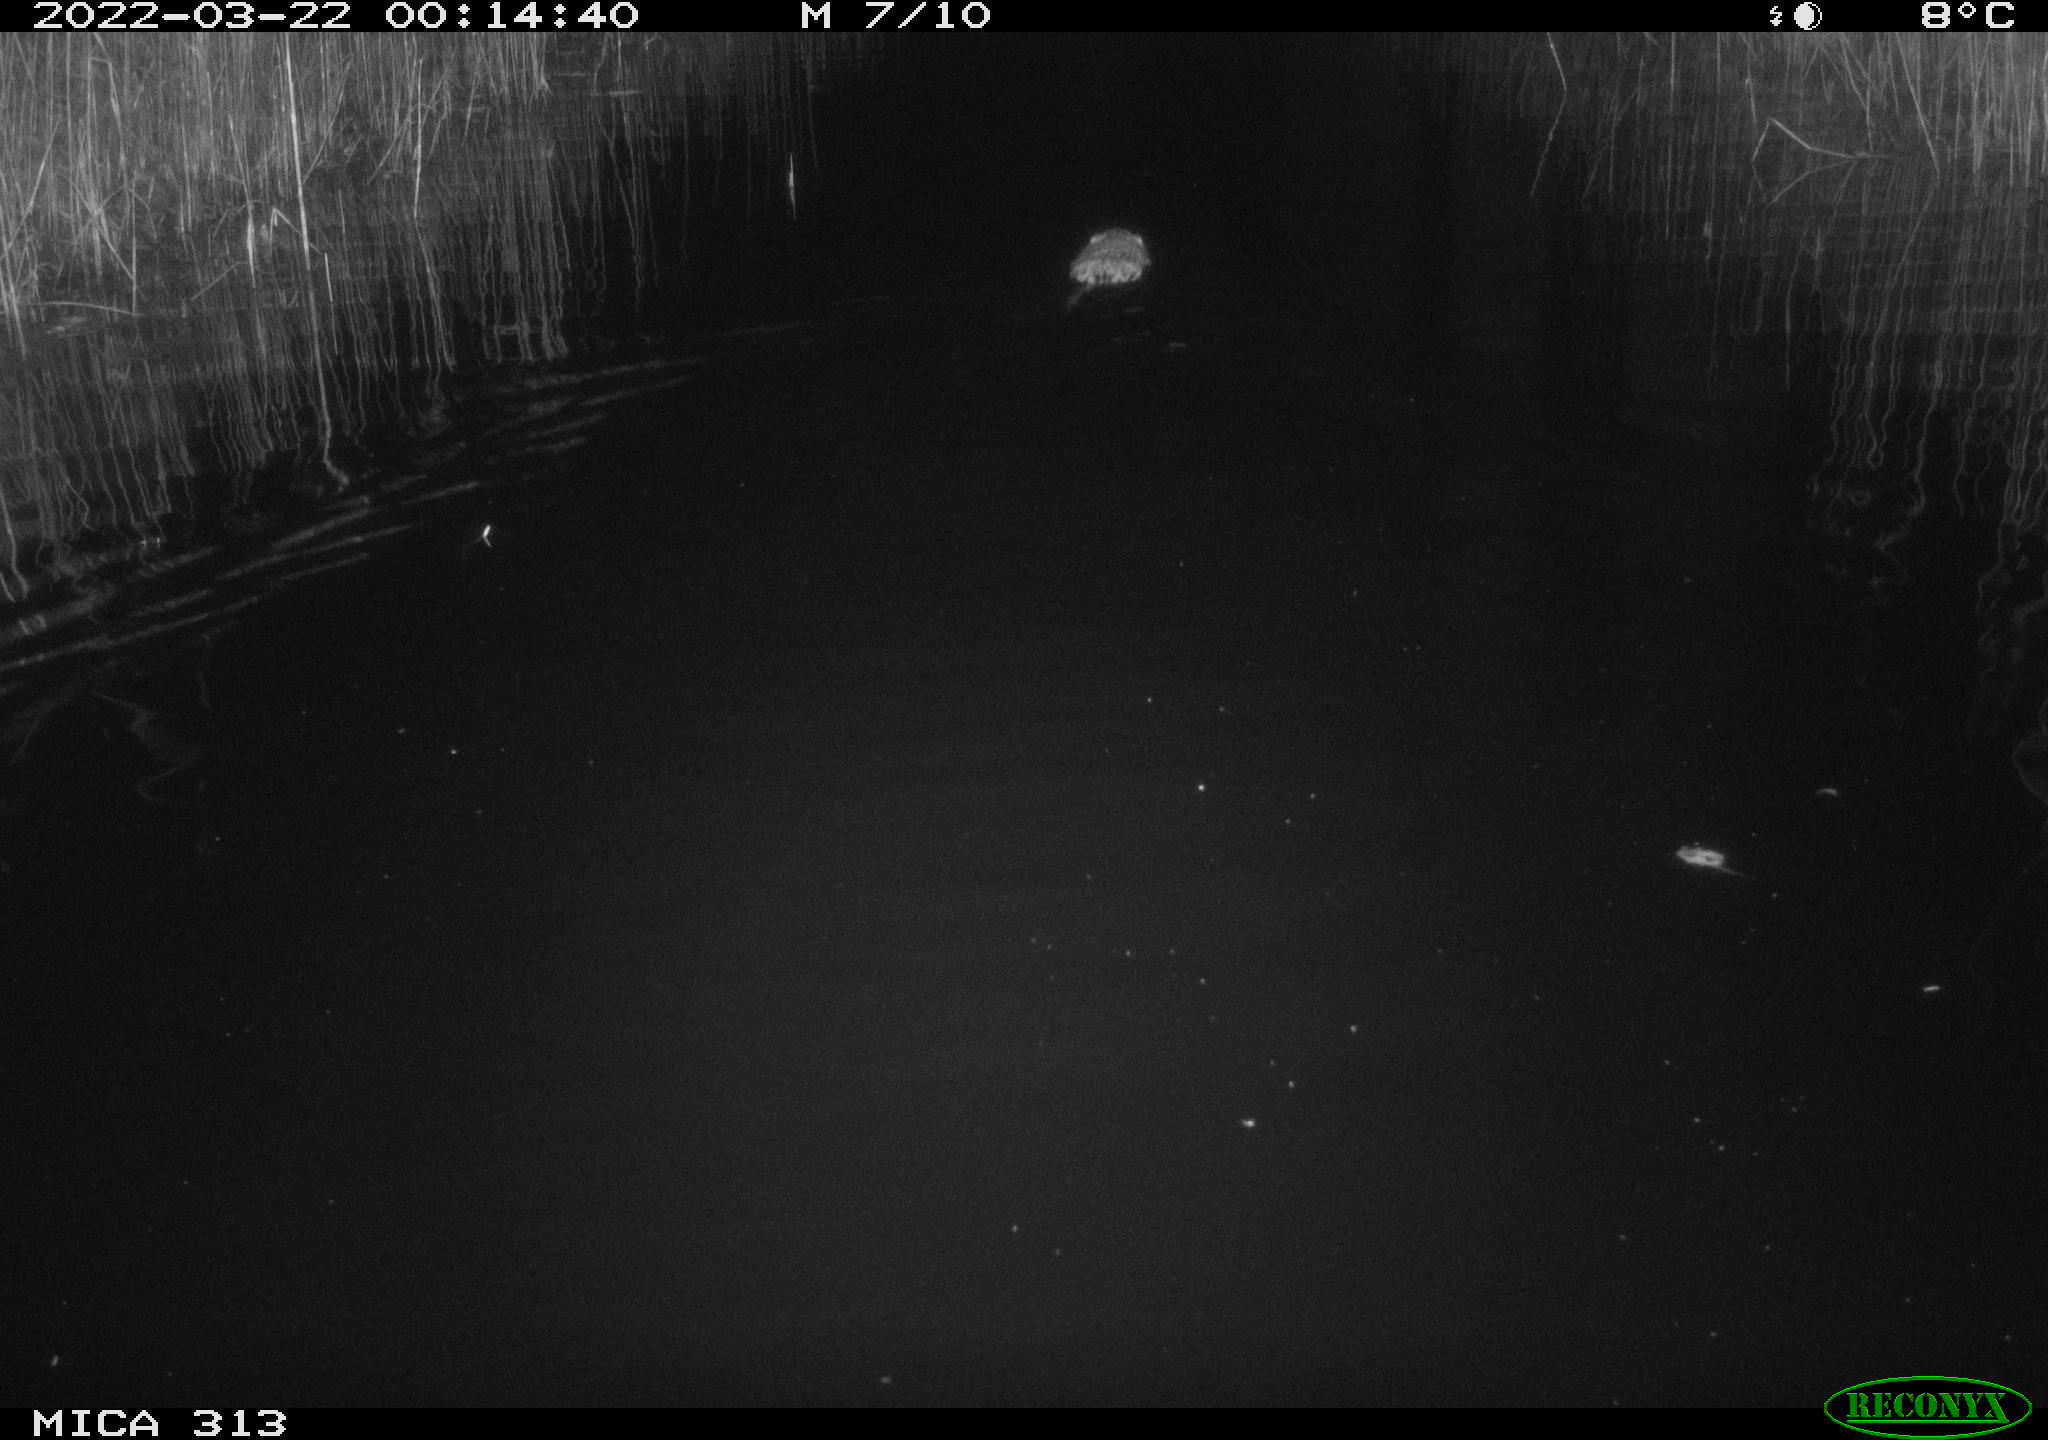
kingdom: Animalia
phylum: Chordata
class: Mammalia
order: Rodentia
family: Cricetidae
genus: Ondatra
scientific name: Ondatra zibethicus
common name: Muskrat
